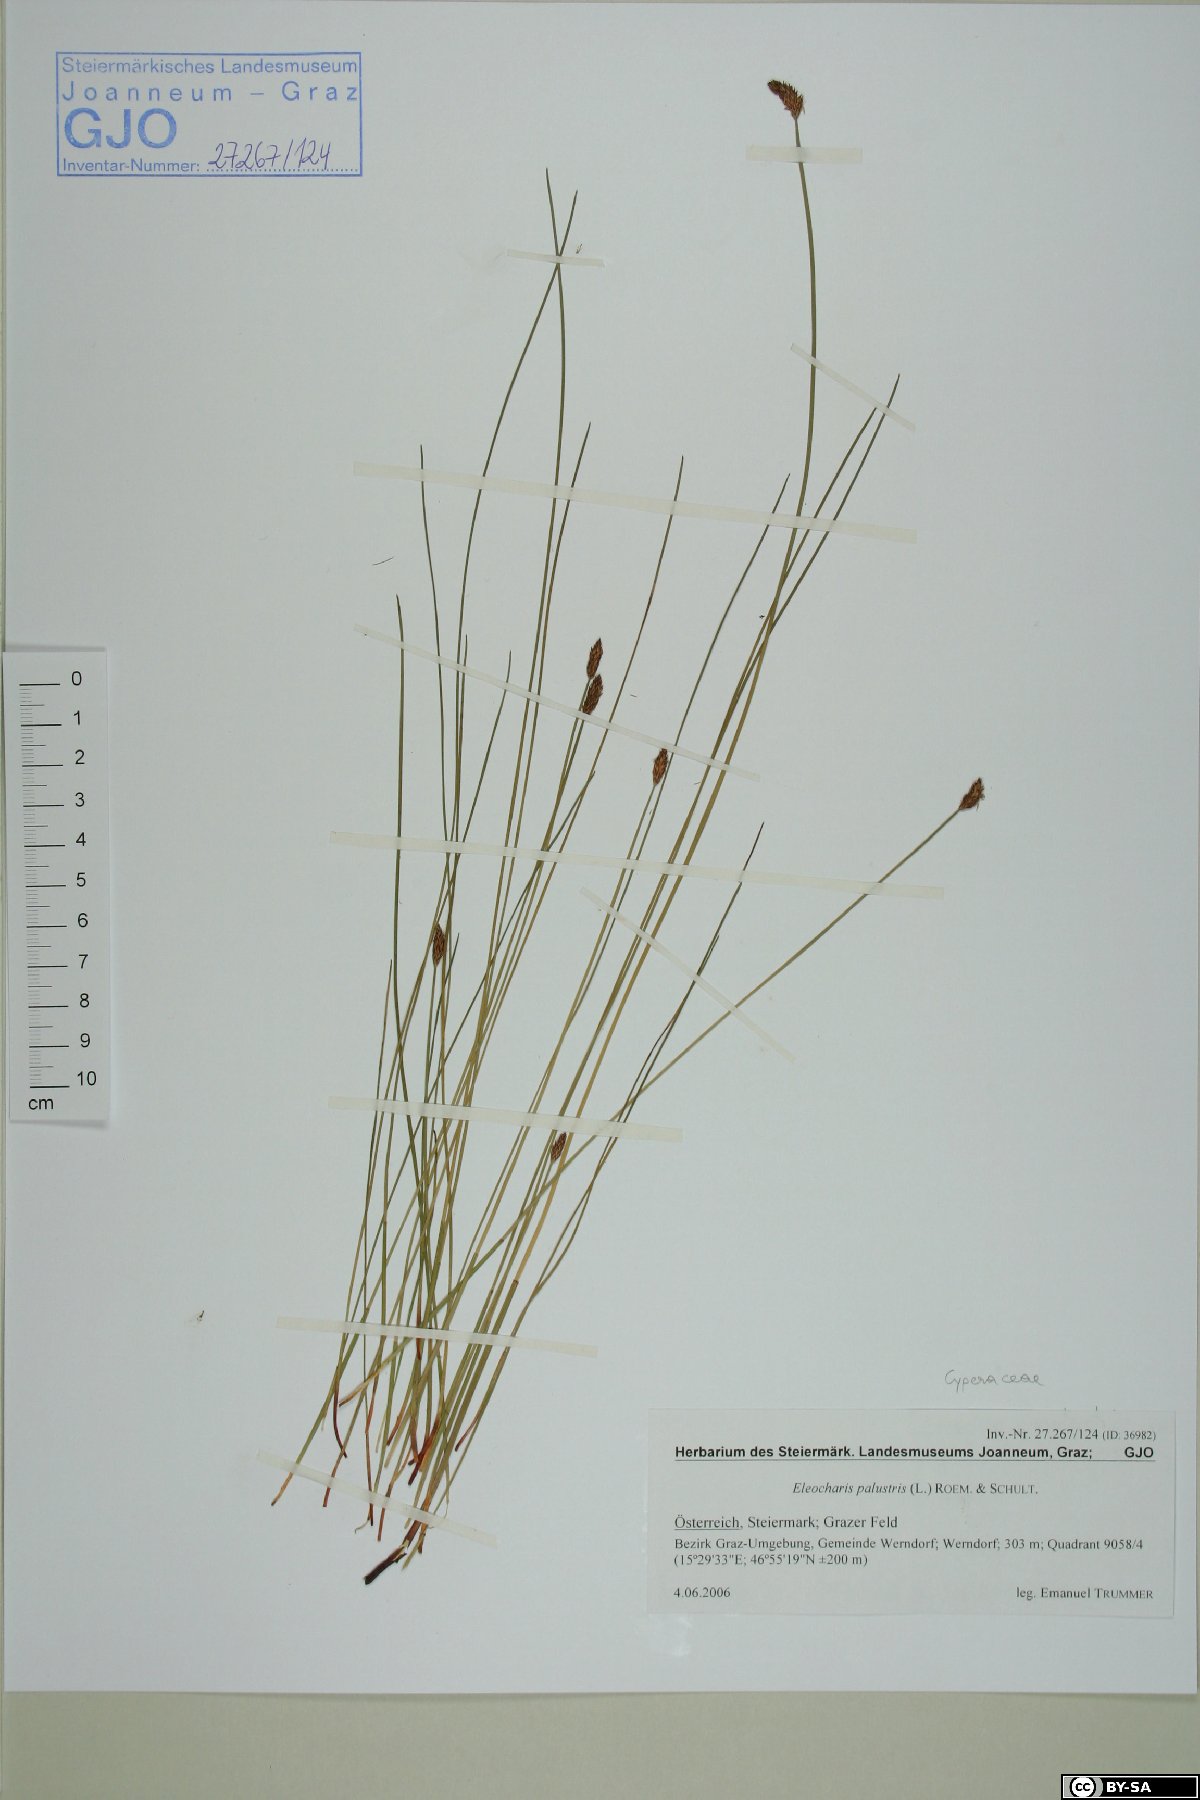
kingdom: Plantae
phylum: Tracheophyta
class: Liliopsida
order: Poales
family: Cyperaceae
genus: Eleocharis
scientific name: Eleocharis palustris
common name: Common spike-rush
